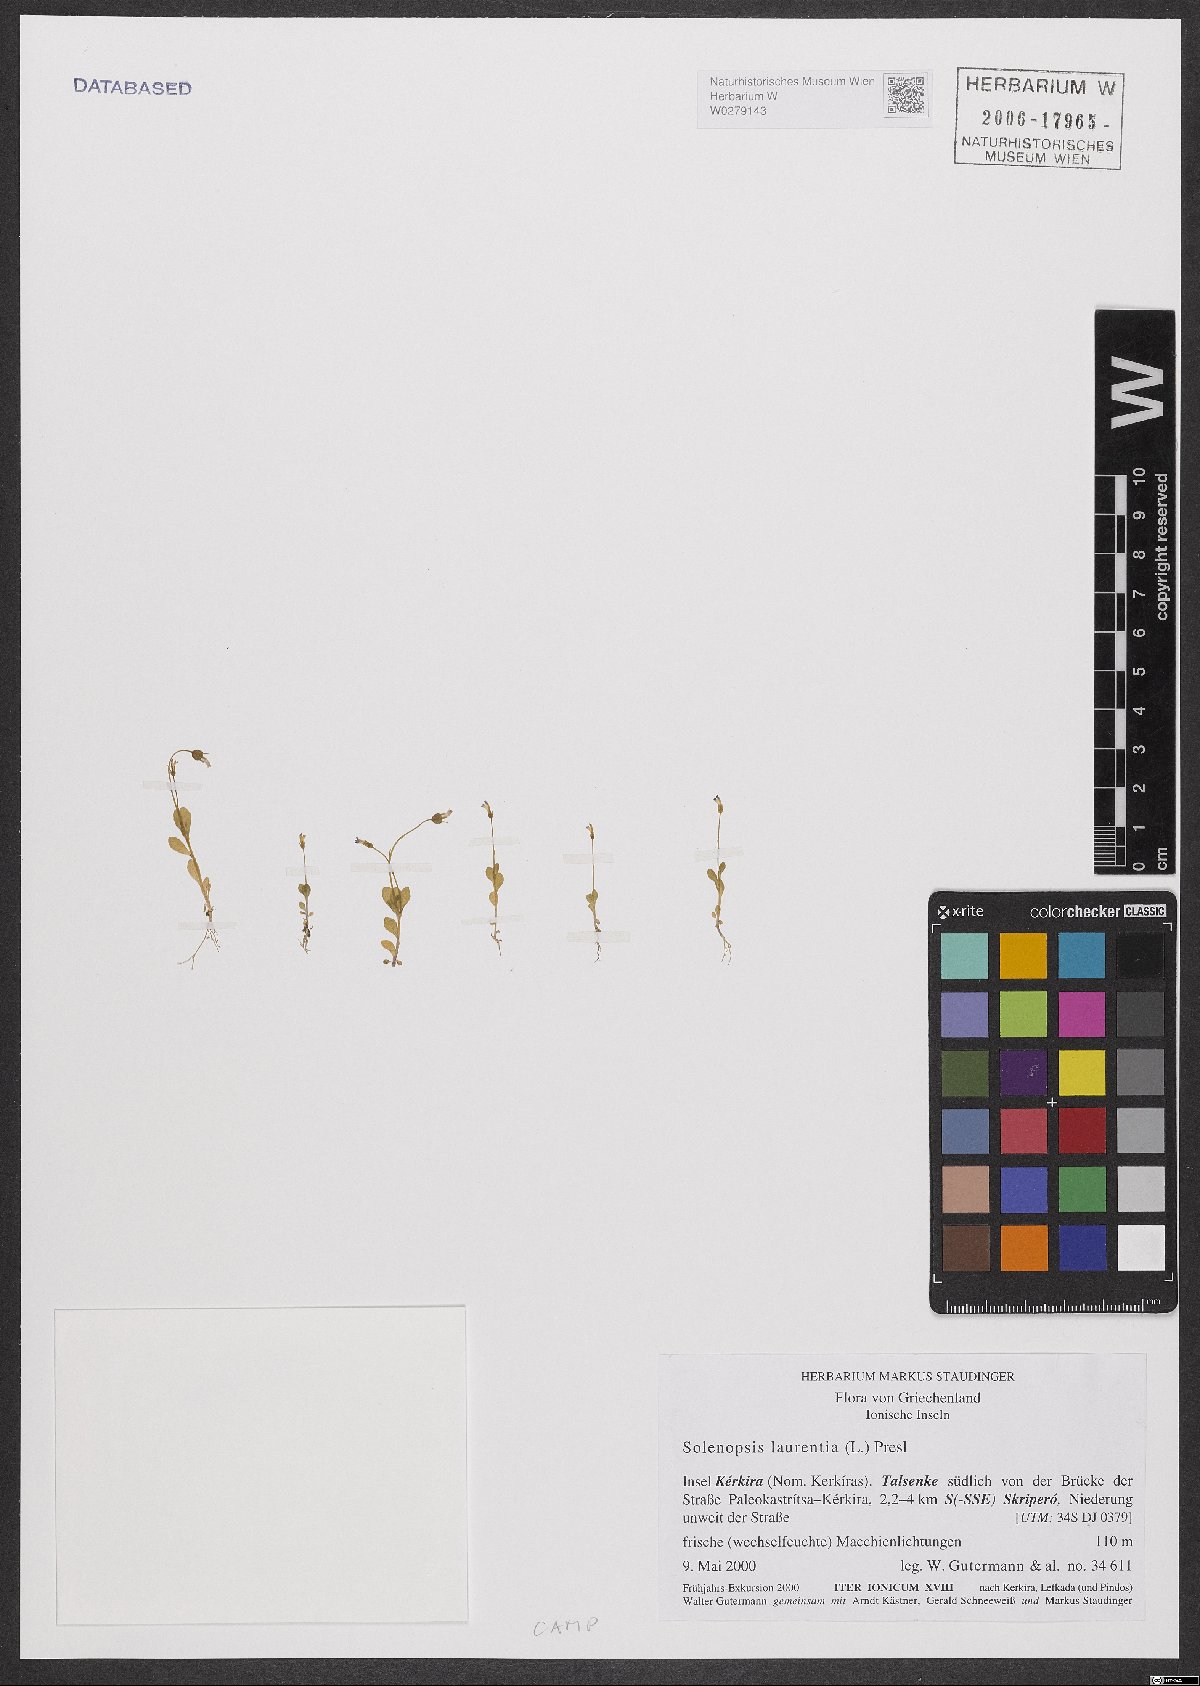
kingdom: Plantae
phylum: Tracheophyta
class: Magnoliopsida
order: Asterales
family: Campanulaceae
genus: Solenopsis
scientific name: Solenopsis laurentia
